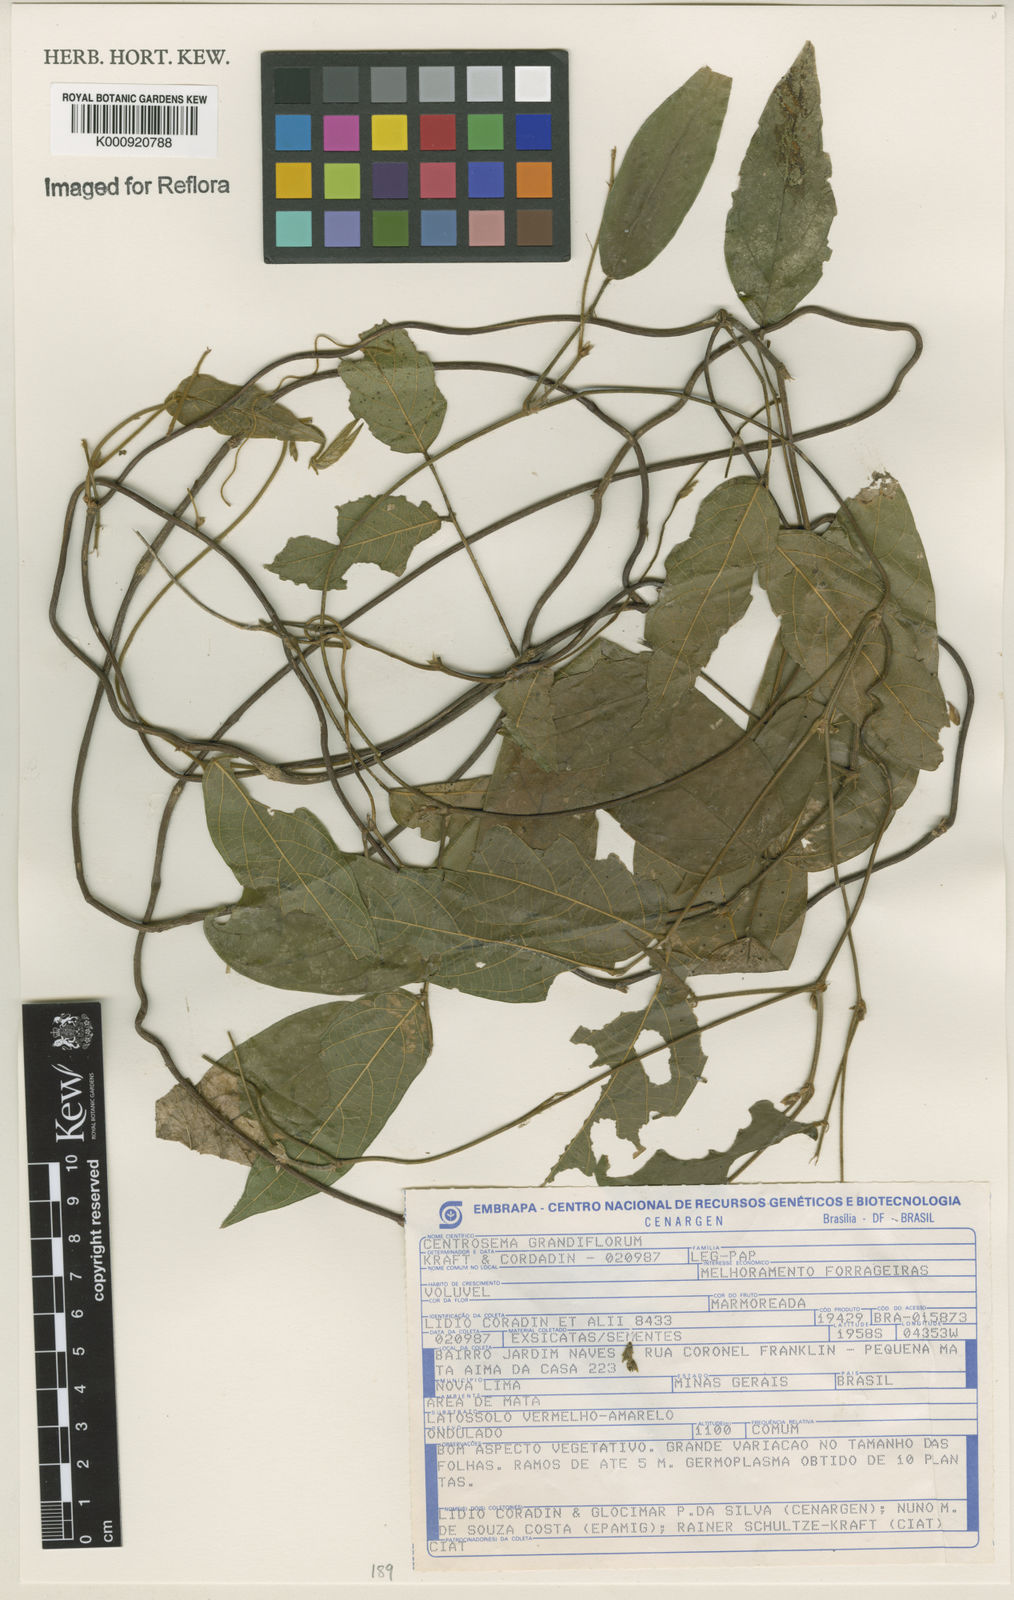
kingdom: Plantae
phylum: Tracheophyta
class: Magnoliopsida
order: Fabales
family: Fabaceae
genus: Centrosema
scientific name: Centrosema grandiflorum
